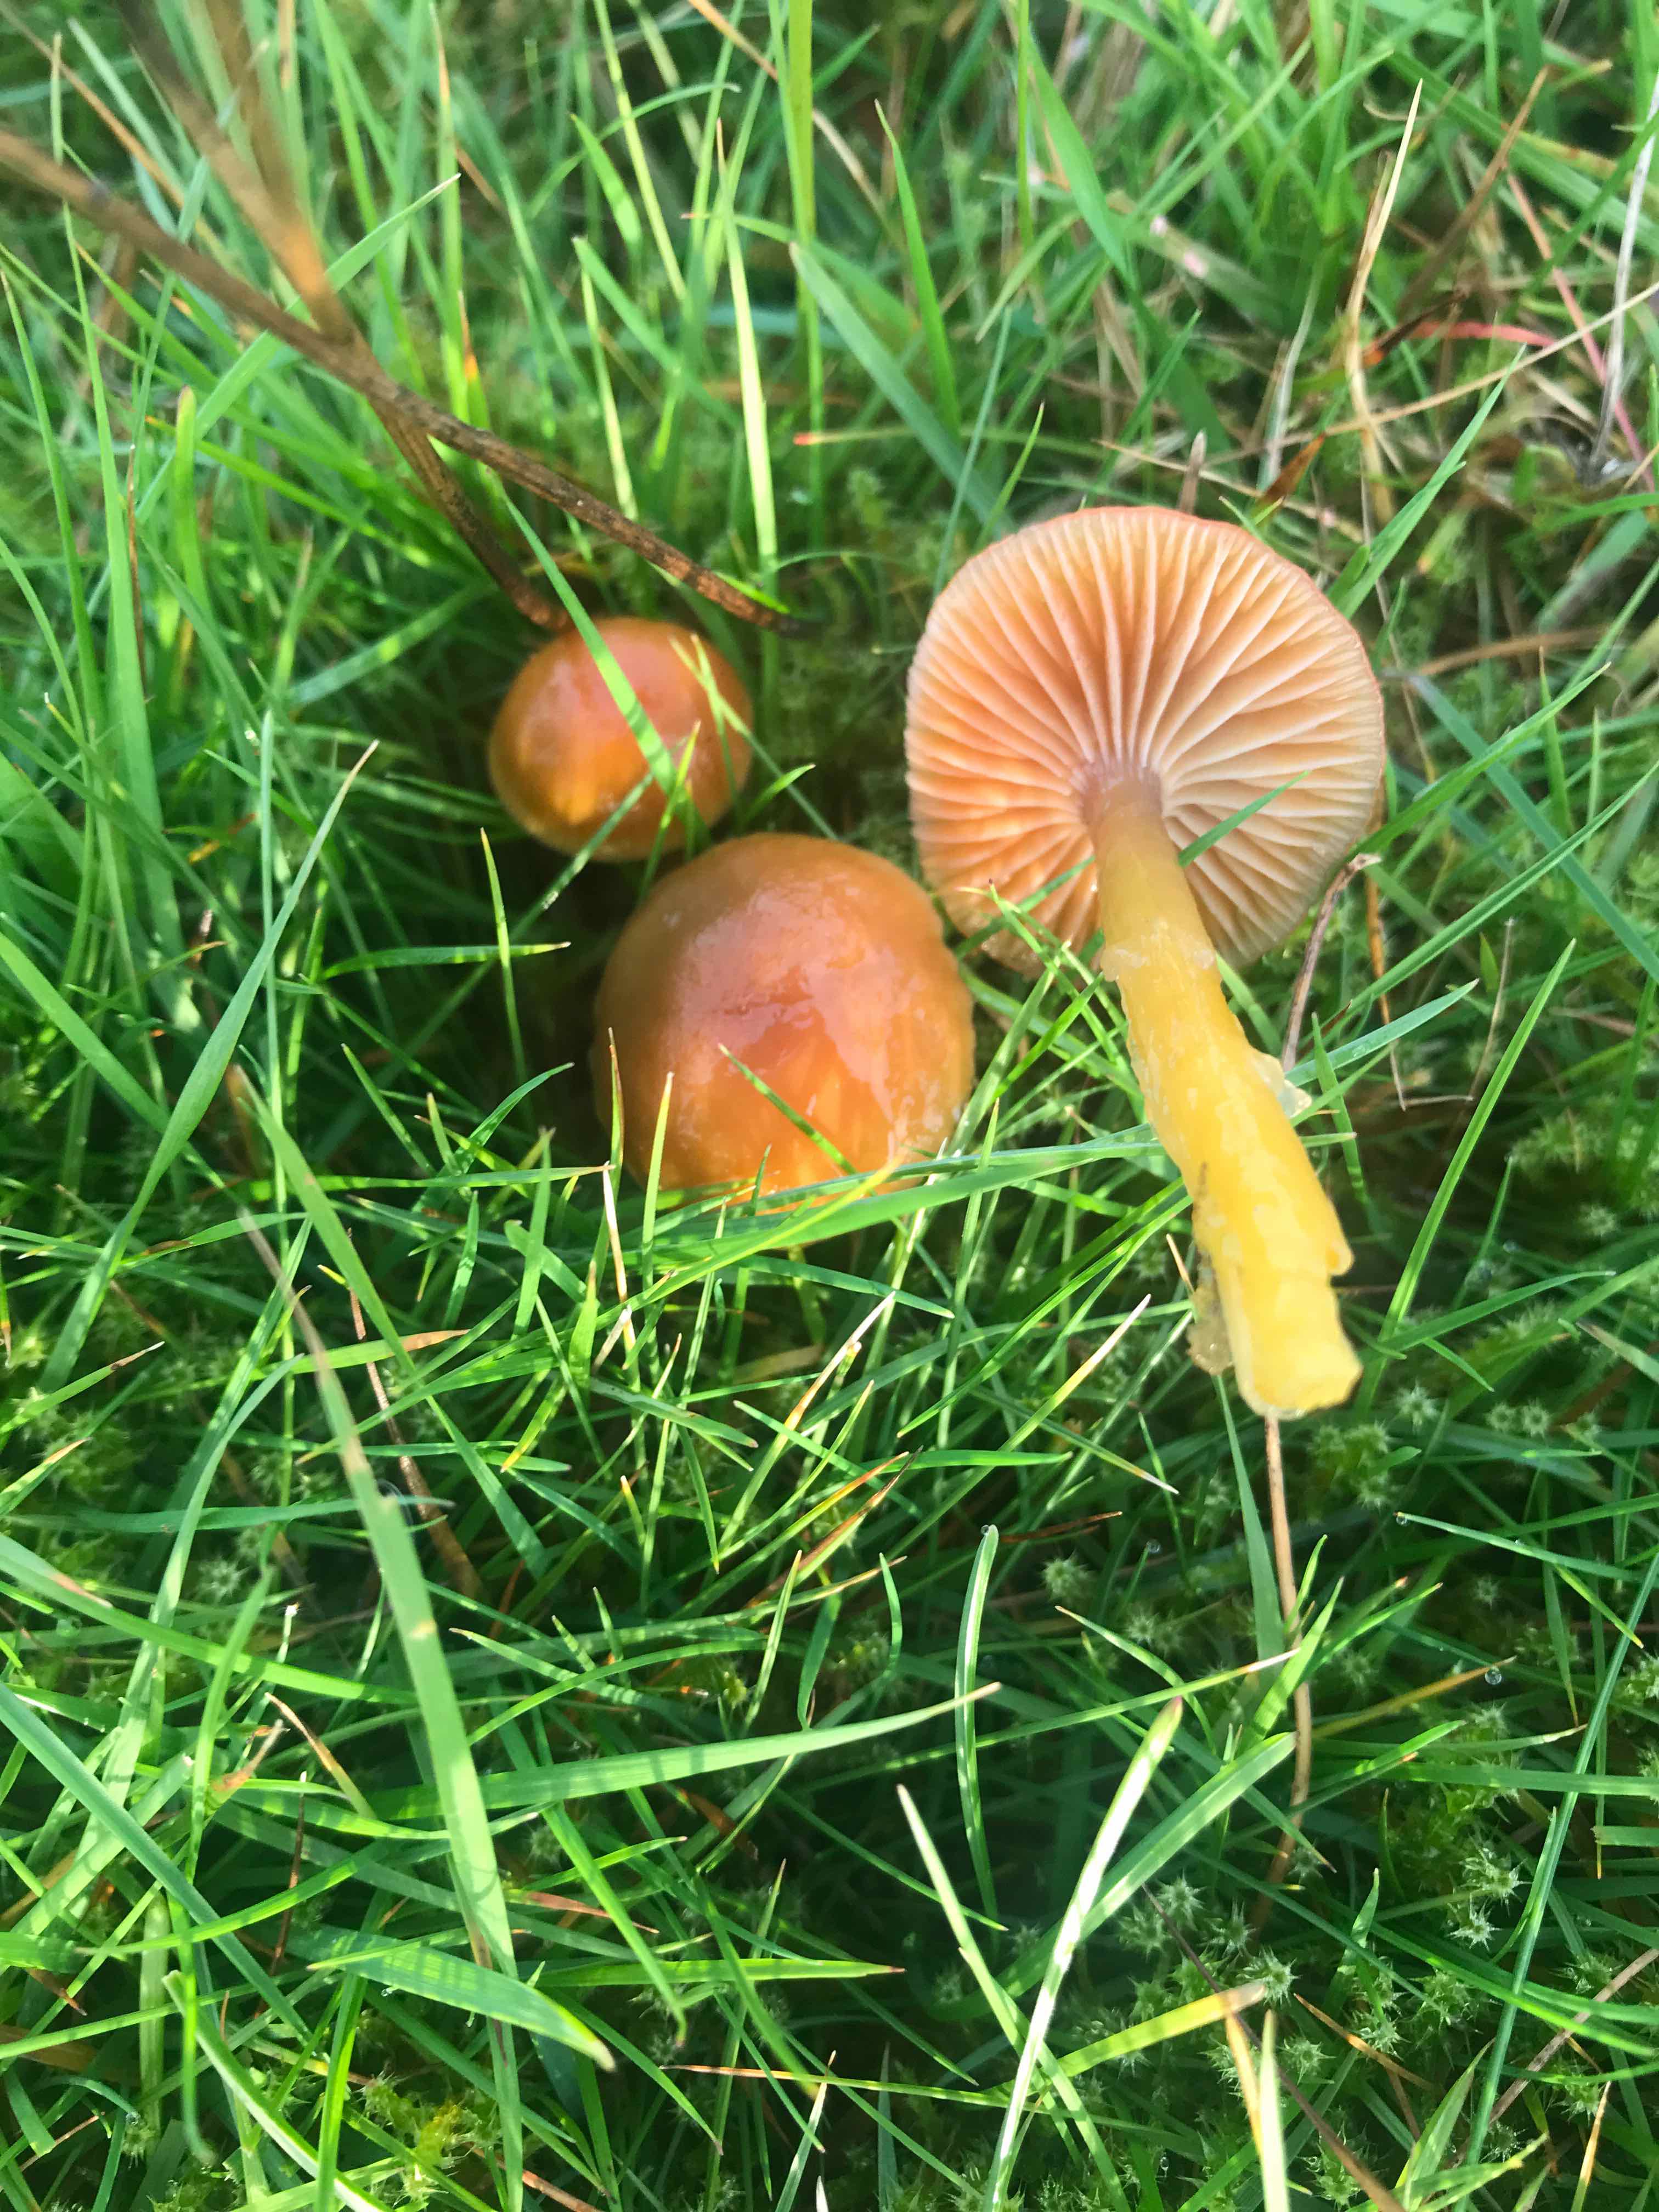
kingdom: Fungi
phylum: Basidiomycota
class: Agaricomycetes
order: Agaricales
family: Hygrophoraceae
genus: Gliophorus
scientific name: Gliophorus laetus
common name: brusk-vokshat
